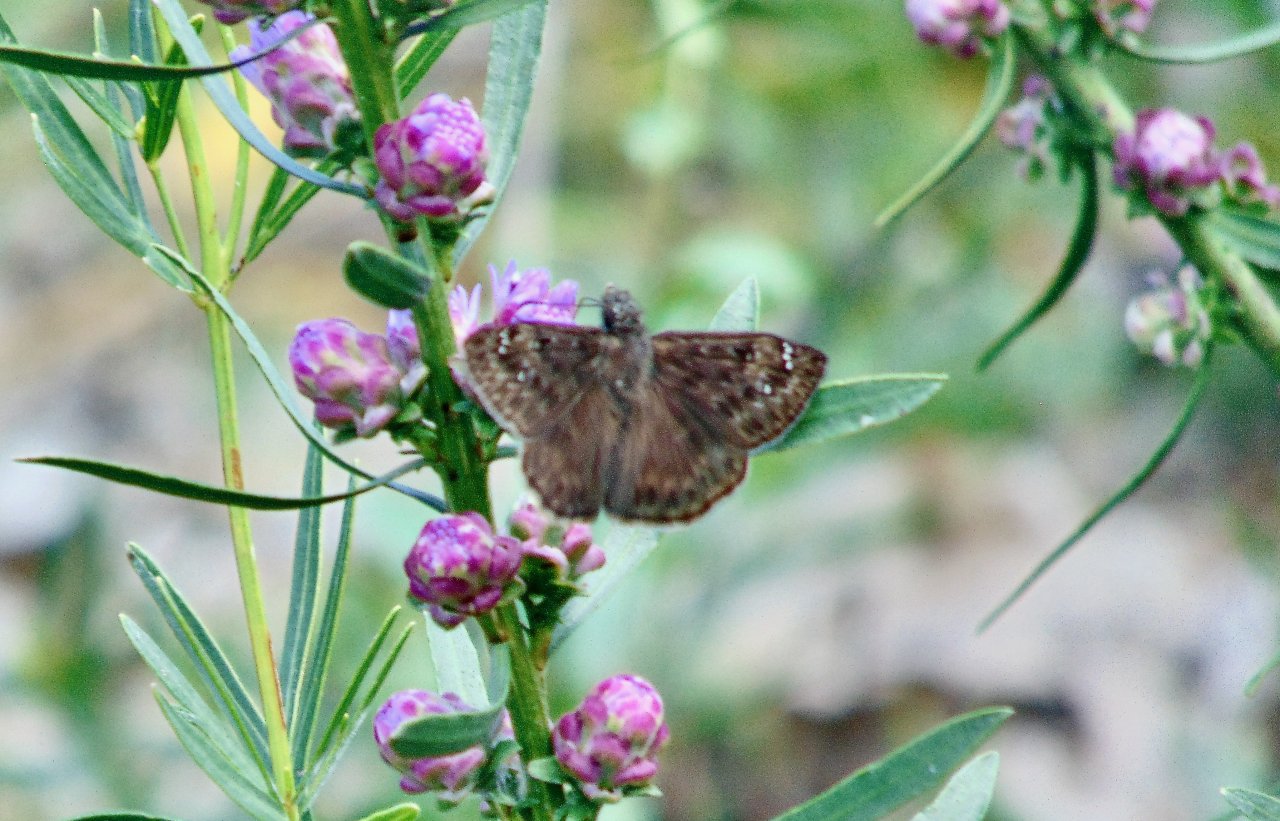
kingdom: Animalia
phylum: Arthropoda
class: Insecta
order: Lepidoptera
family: Hesperiidae
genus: Gesta
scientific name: Gesta
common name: Wild Indigo Duskywing
